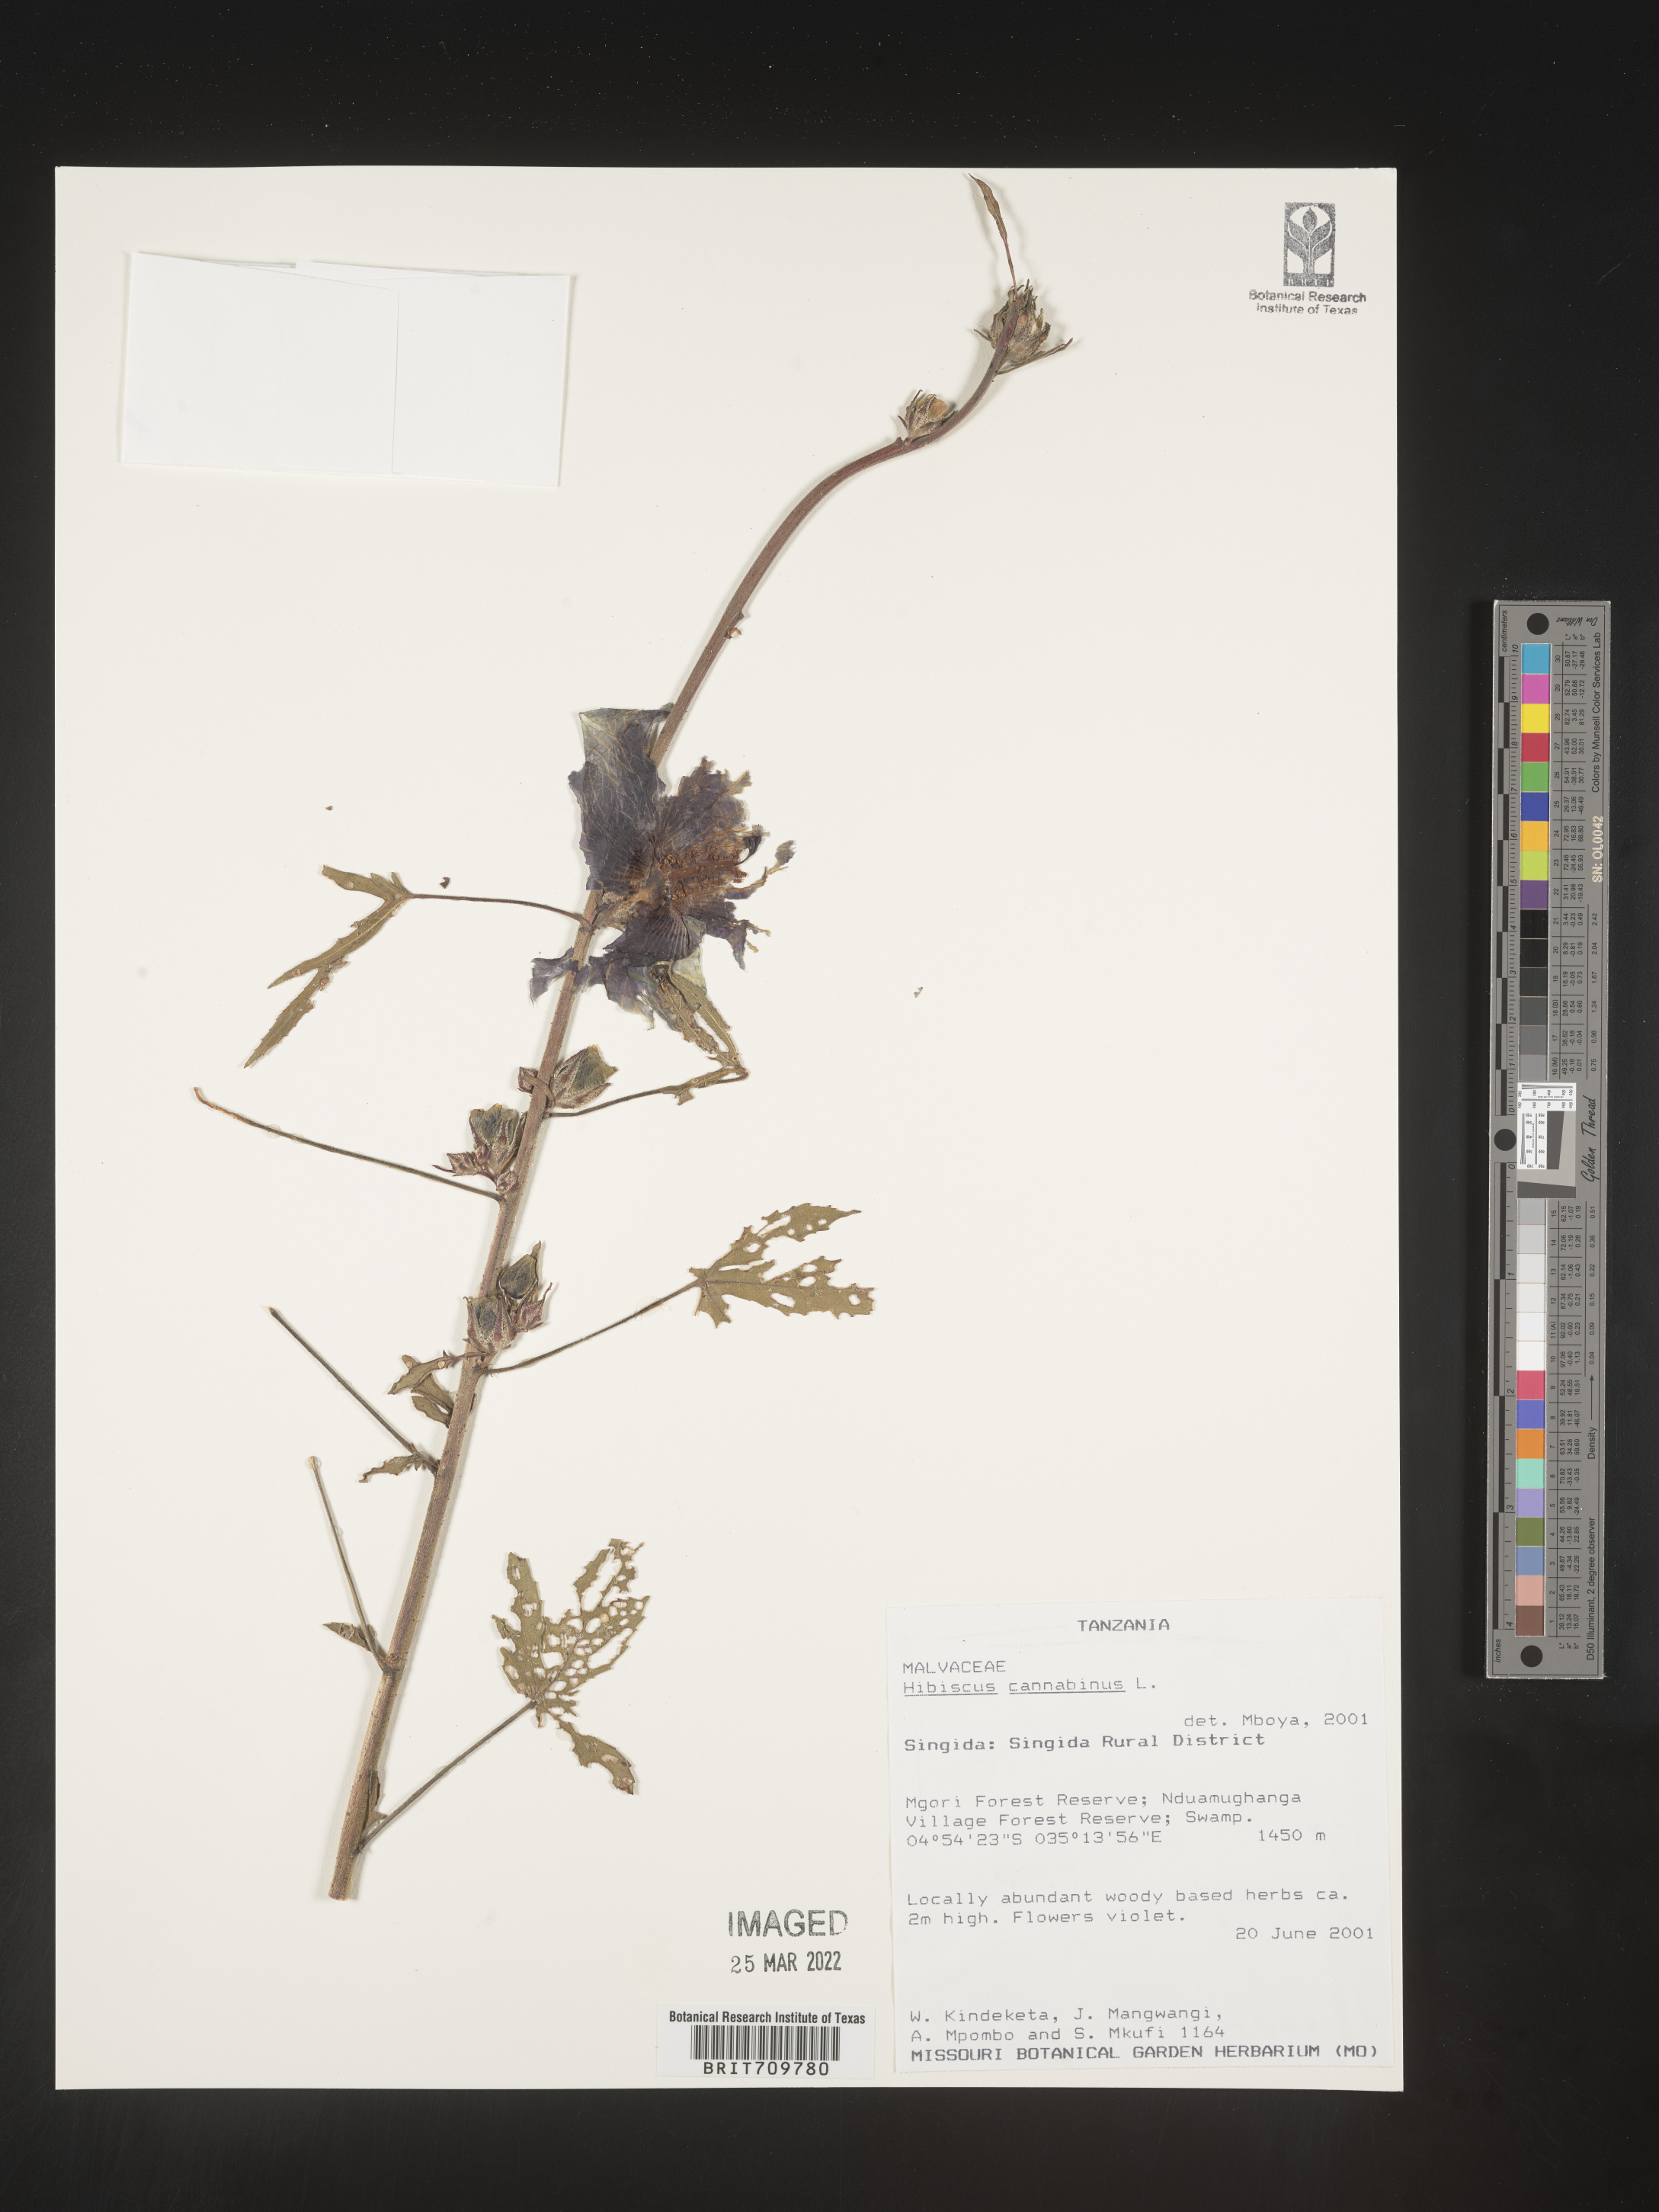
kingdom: Plantae
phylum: Tracheophyta
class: Magnoliopsida
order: Malvales
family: Malvaceae
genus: Hibiscus
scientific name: Hibiscus
